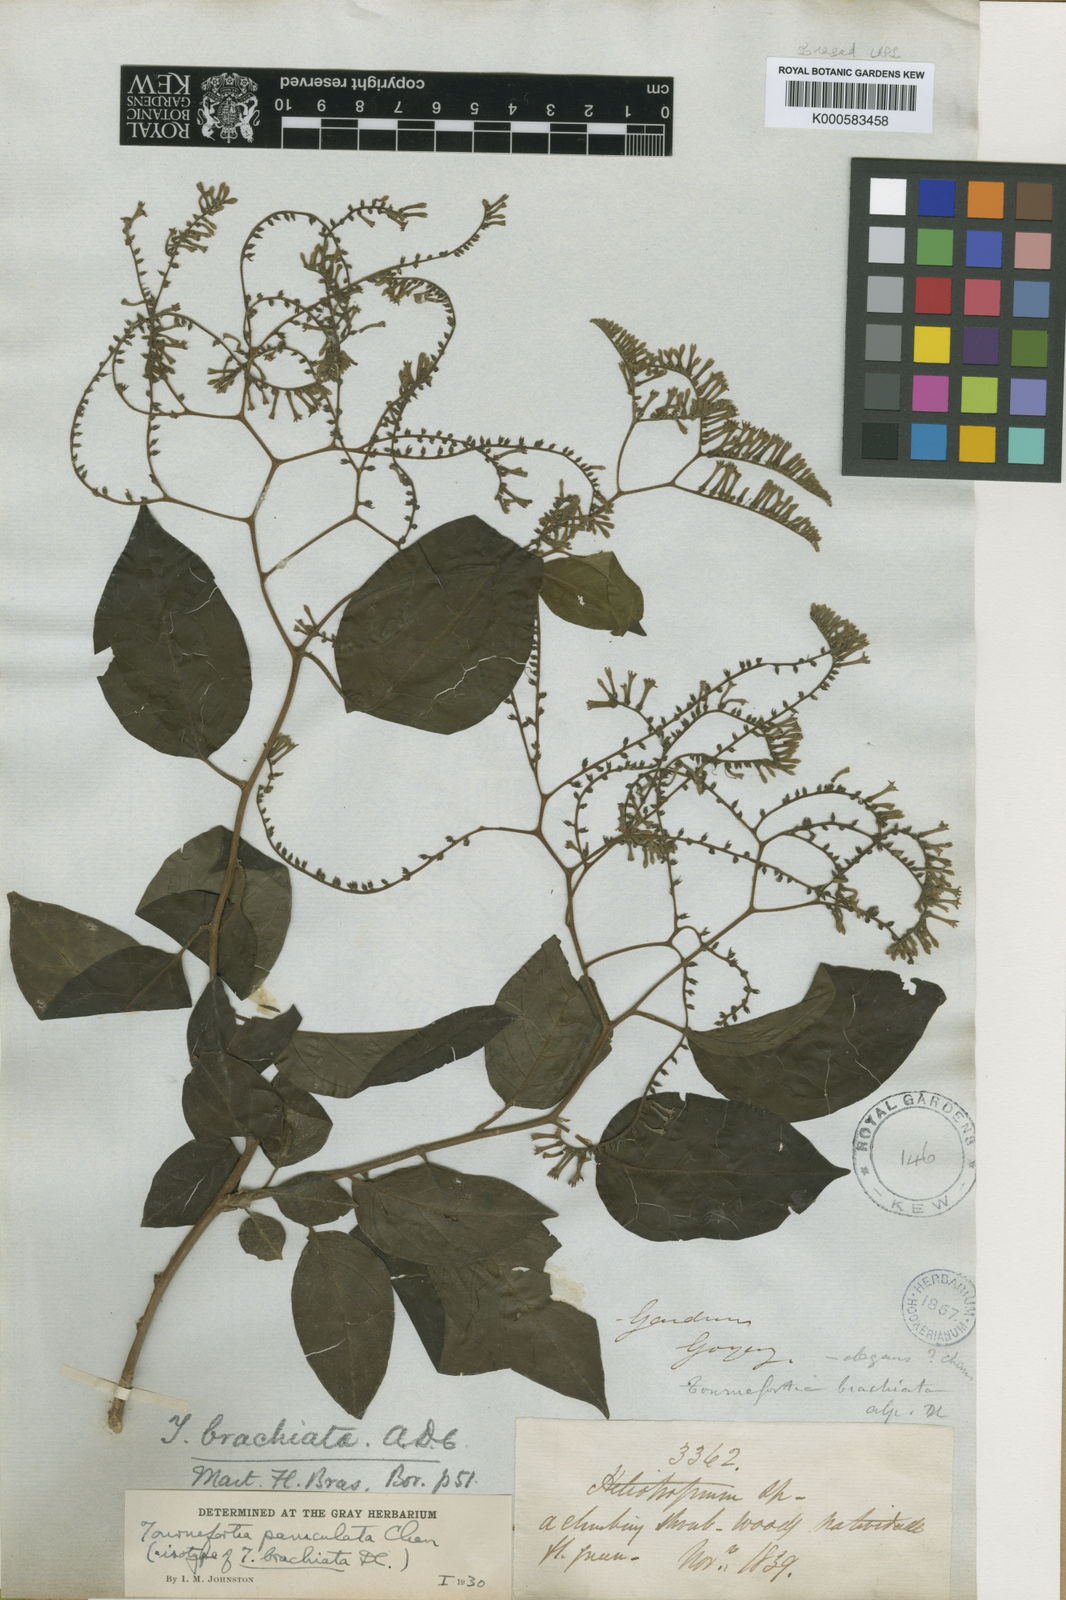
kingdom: Plantae
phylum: Tracheophyta
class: Magnoliopsida
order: Boraginales
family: Heliotropiaceae
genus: Myriopus
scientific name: Myriopus paniculatus
